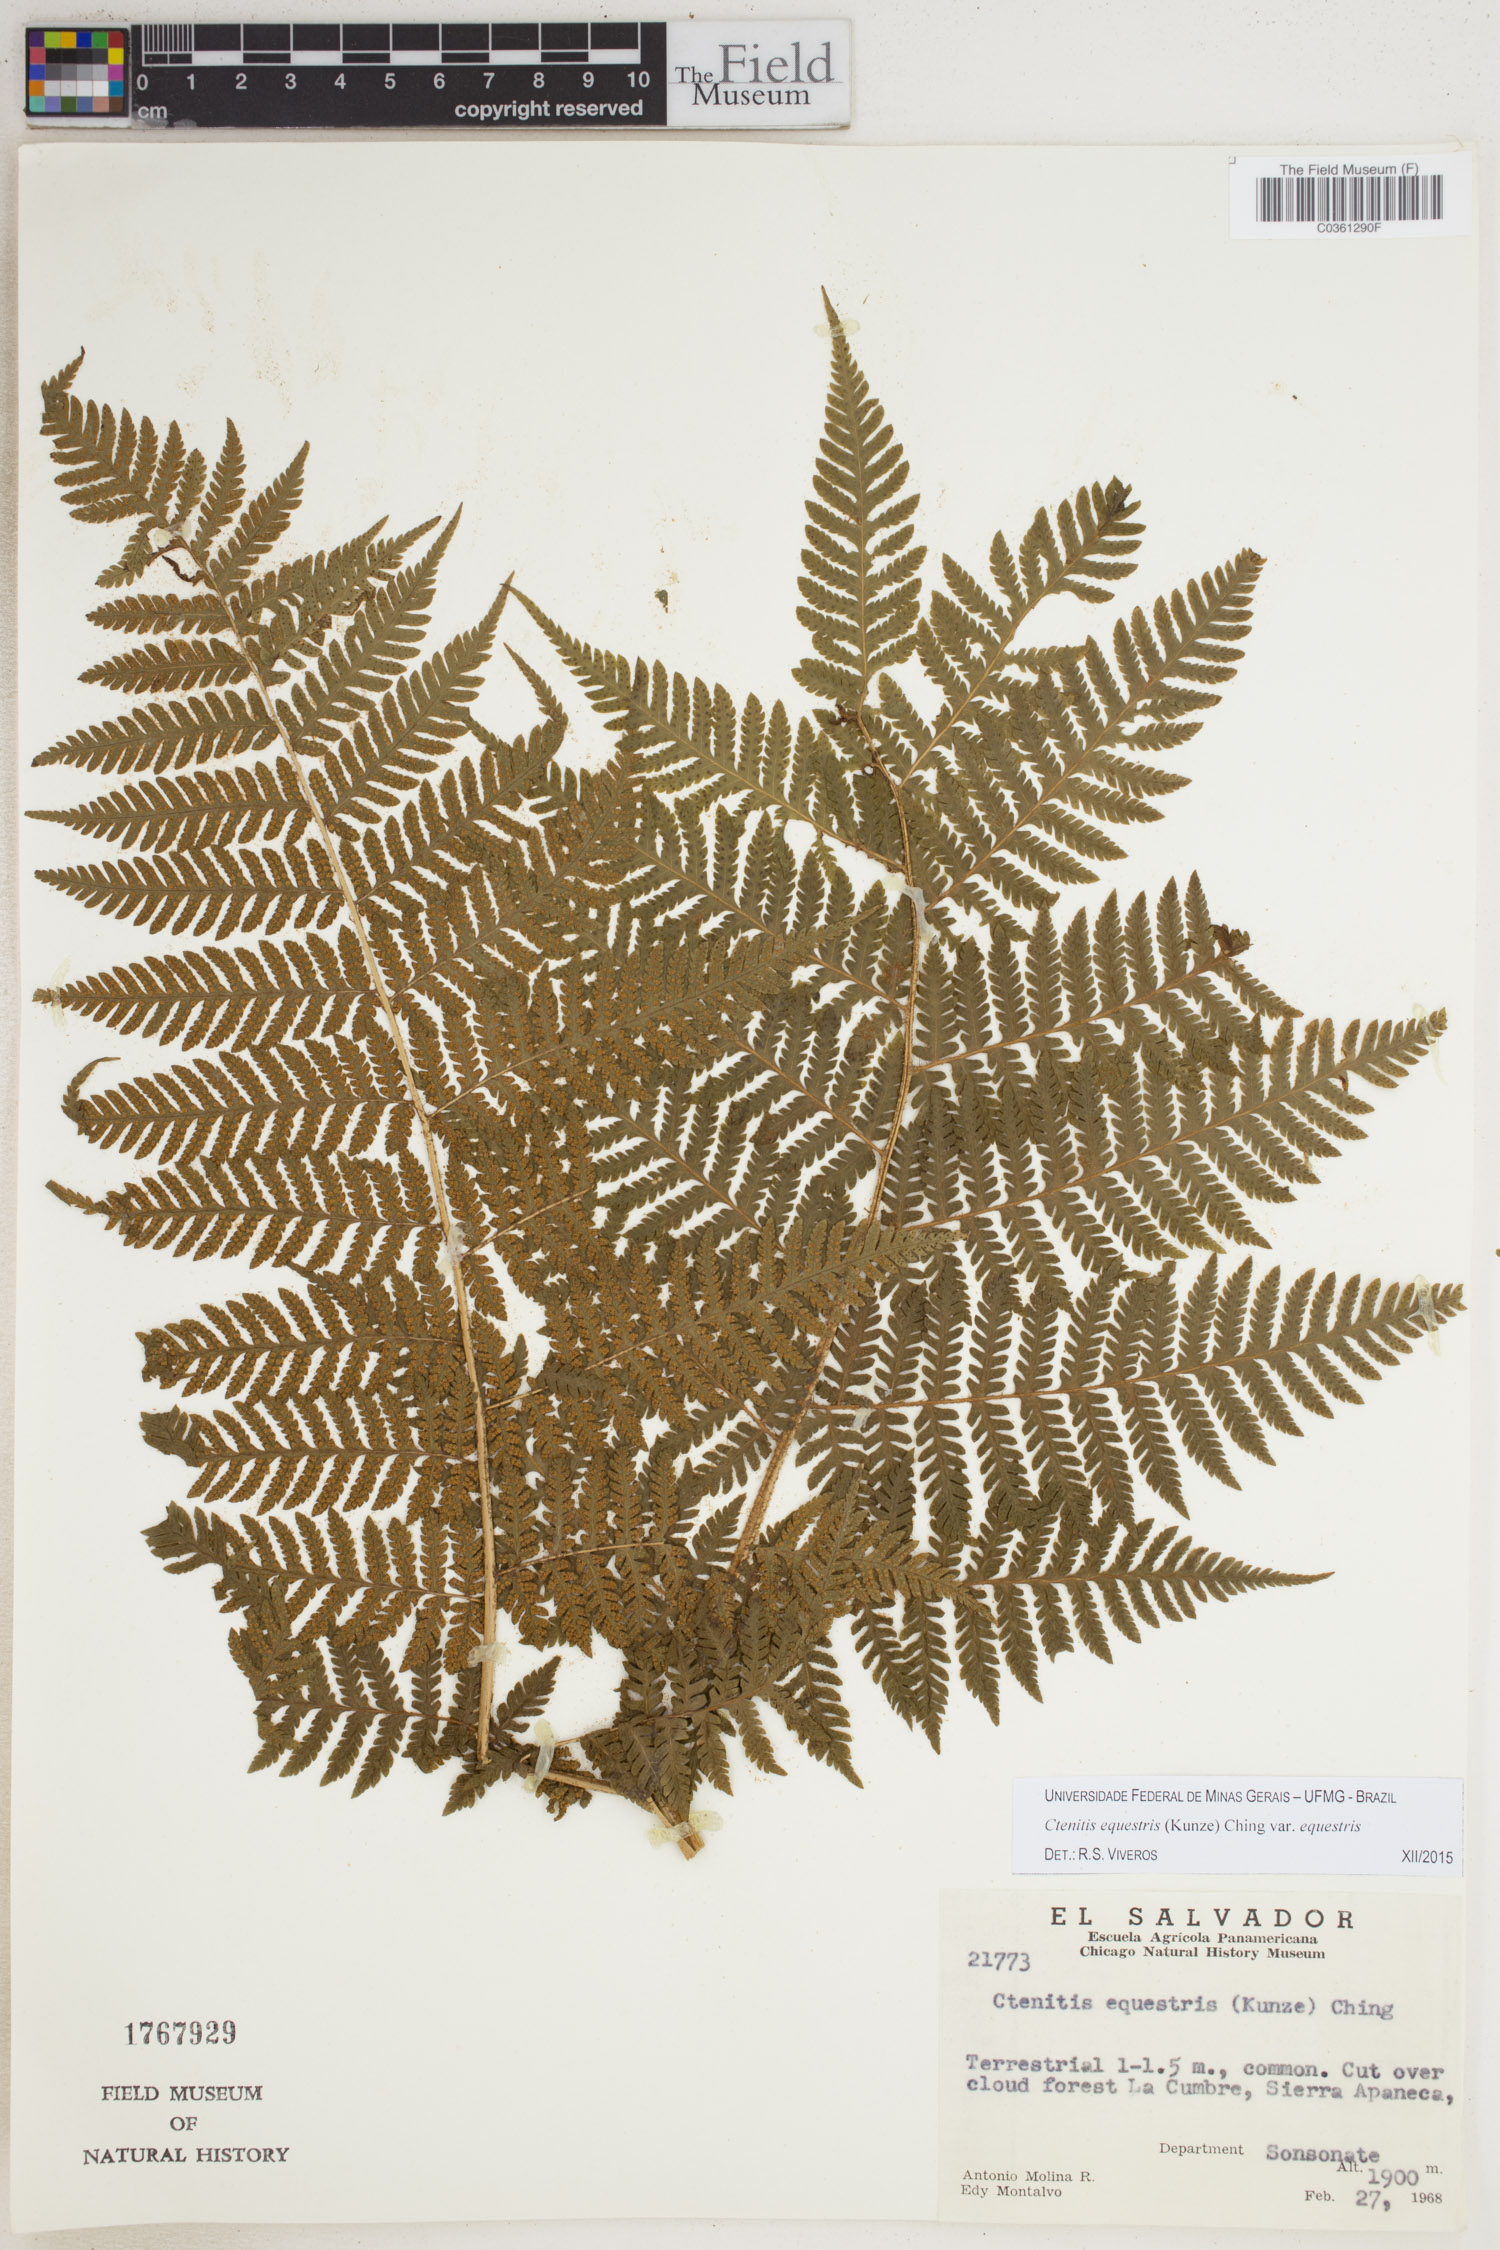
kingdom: Plantae
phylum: Tracheophyta
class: Polypodiopsida
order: Polypodiales
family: Dryopteridaceae
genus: Ctenitis
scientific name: Ctenitis equestris
